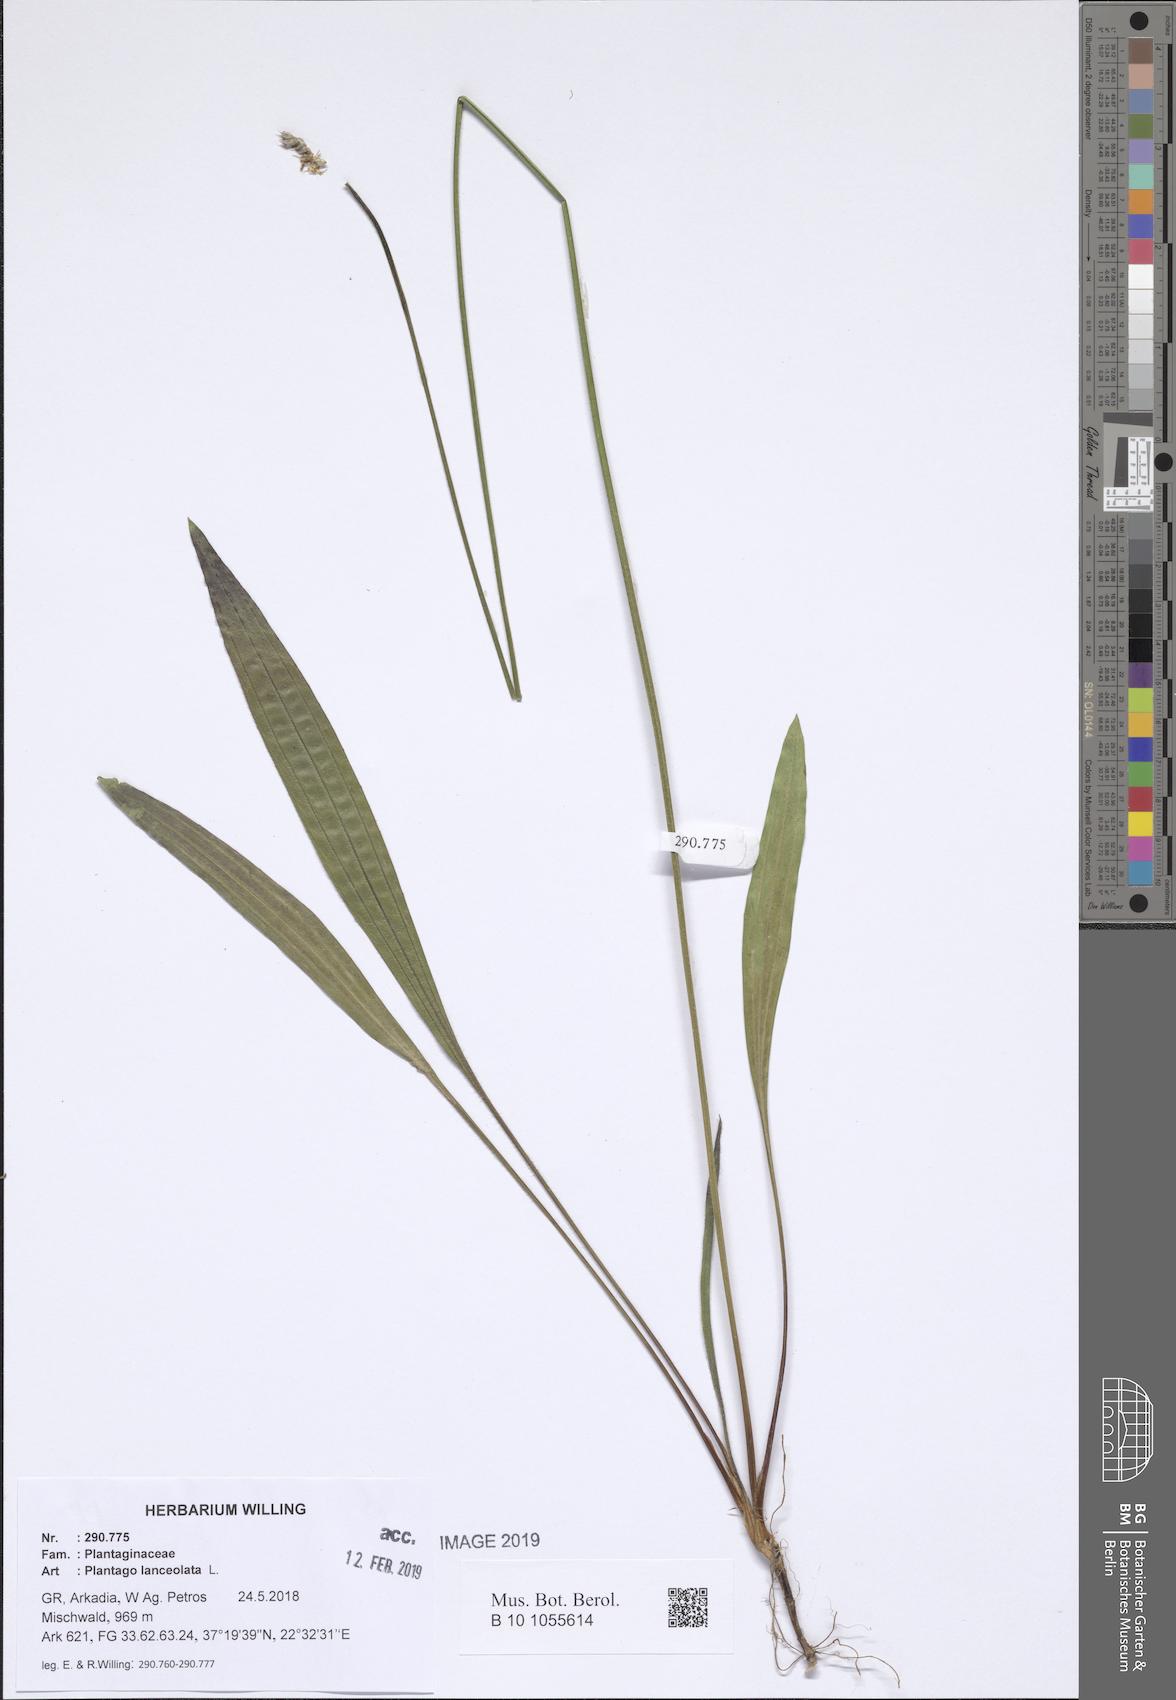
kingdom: Plantae
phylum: Tracheophyta
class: Magnoliopsida
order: Lamiales
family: Plantaginaceae
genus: Plantago
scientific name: Plantago lanceolata
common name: Ribwort plantain
